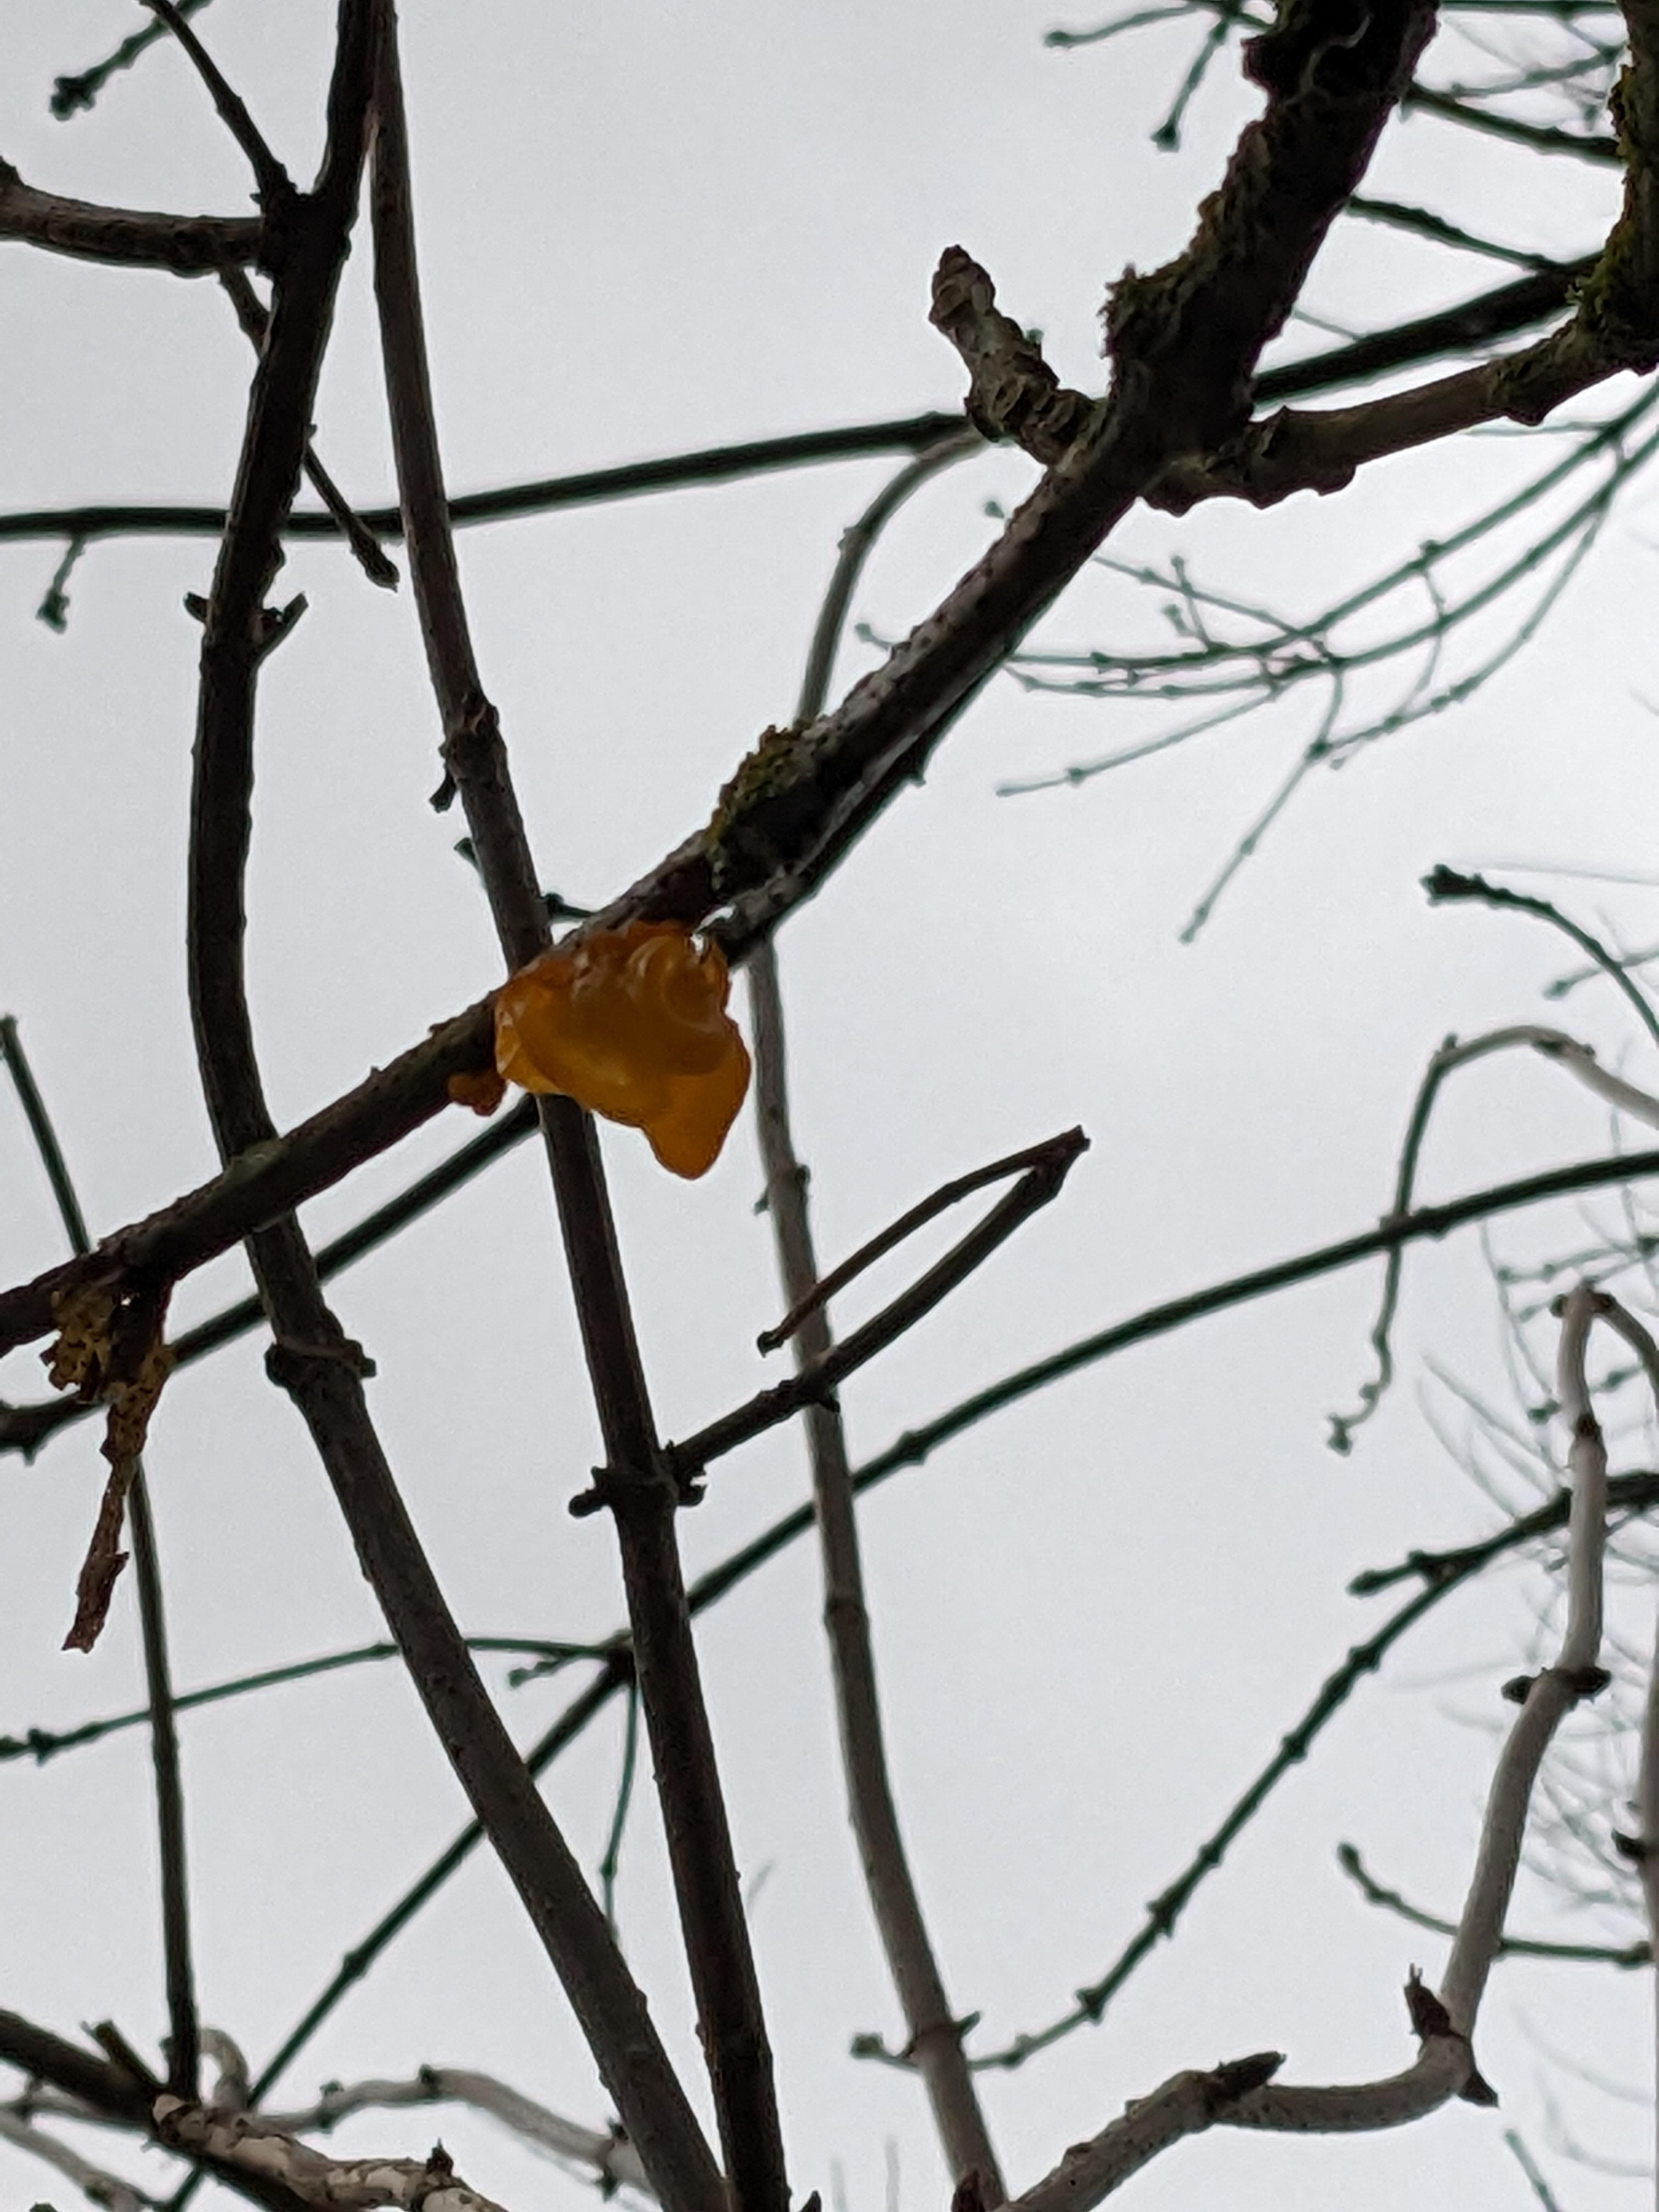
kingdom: Fungi
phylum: Basidiomycota
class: Tremellomycetes
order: Tremellales
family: Tremellaceae
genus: Tremella
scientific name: Tremella mesenterica
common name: gul bævresvamp
